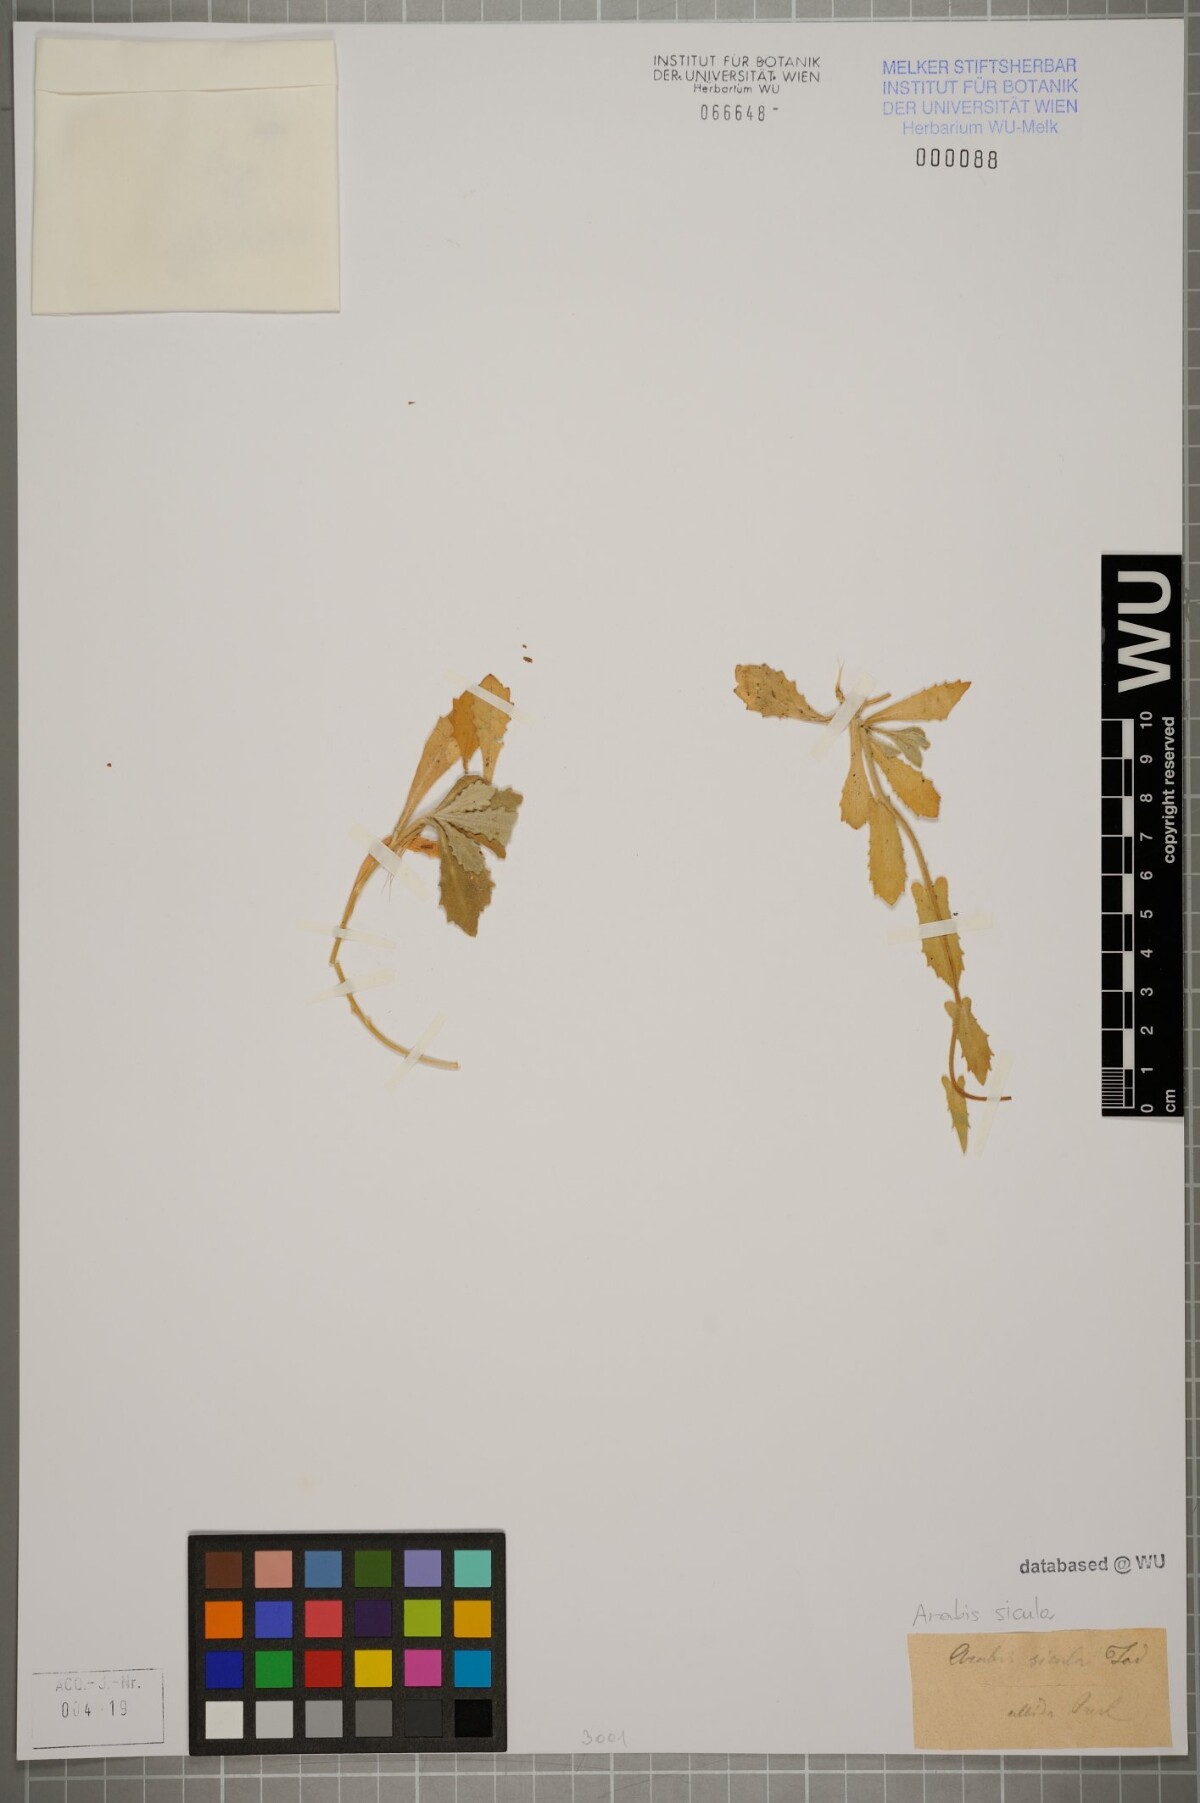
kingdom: Plantae
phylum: Tracheophyta
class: Magnoliopsida
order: Brassicales
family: Brassicaceae
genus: Arabis
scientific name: Arabis alpina
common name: Alpine rock-cress
